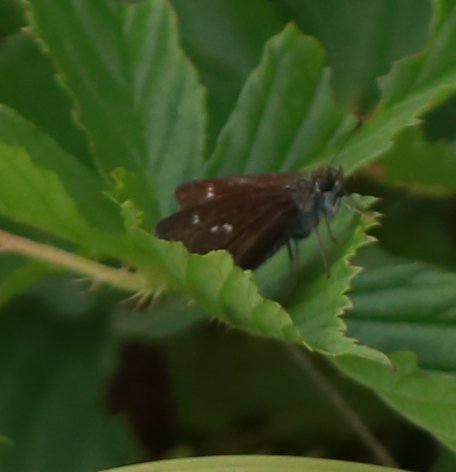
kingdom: Animalia
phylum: Arthropoda
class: Insecta
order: Lepidoptera
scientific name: Lepidoptera
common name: Butterflies
